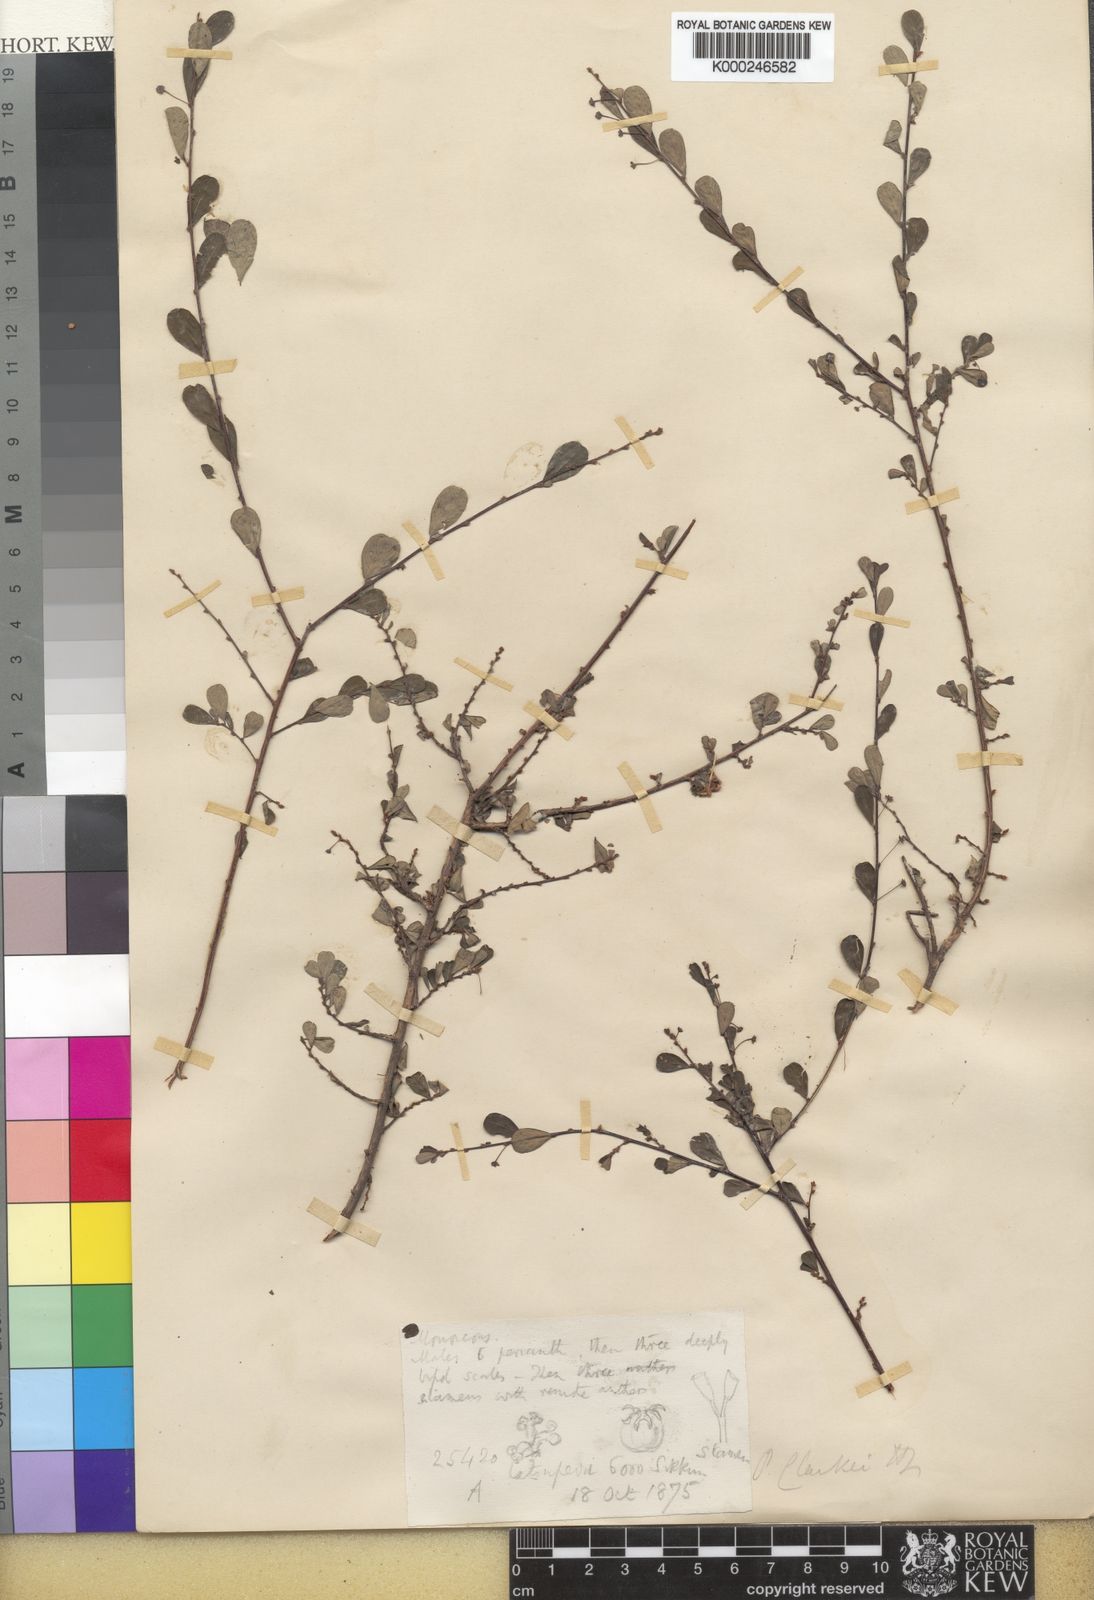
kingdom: Plantae
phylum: Tracheophyta
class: Magnoliopsida
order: Malpighiales
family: Phyllanthaceae
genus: Phyllanthus
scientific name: Phyllanthus clarkei
